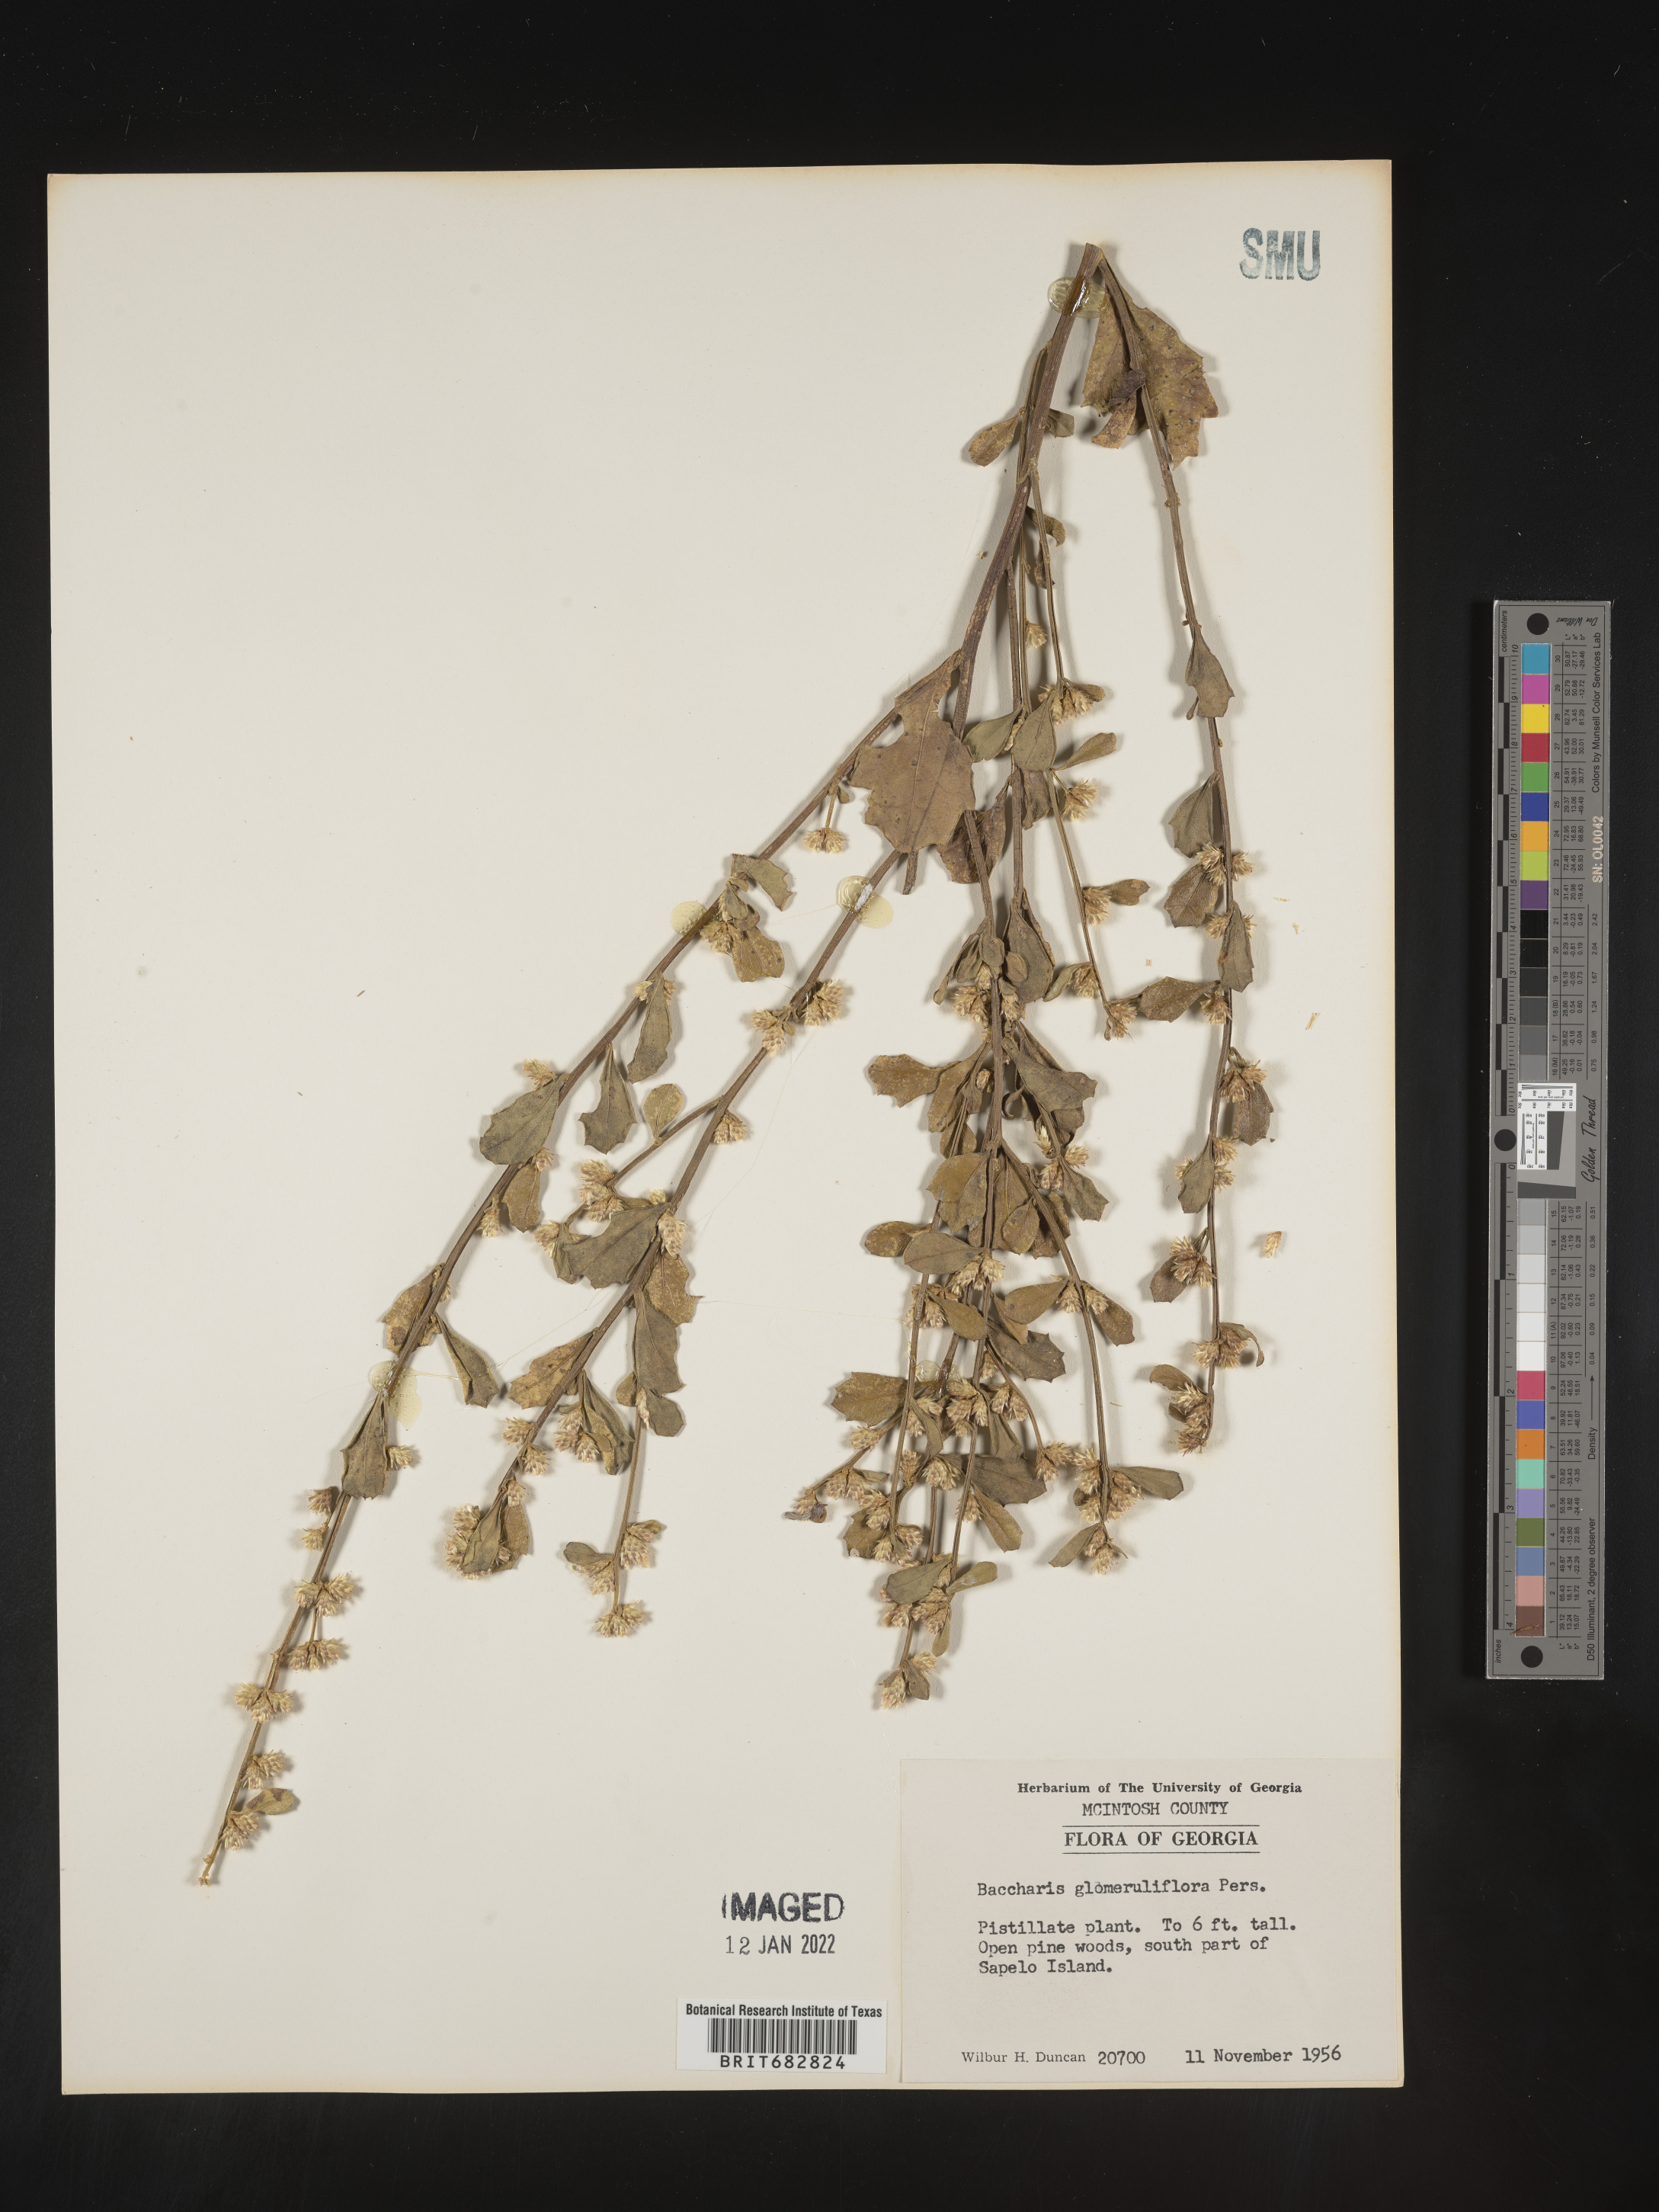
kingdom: Plantae
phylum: Tracheophyta
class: Magnoliopsida
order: Asterales
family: Asteraceae
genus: Baccharis
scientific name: Baccharis glomeruliflora
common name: Silverling groundsel bush
